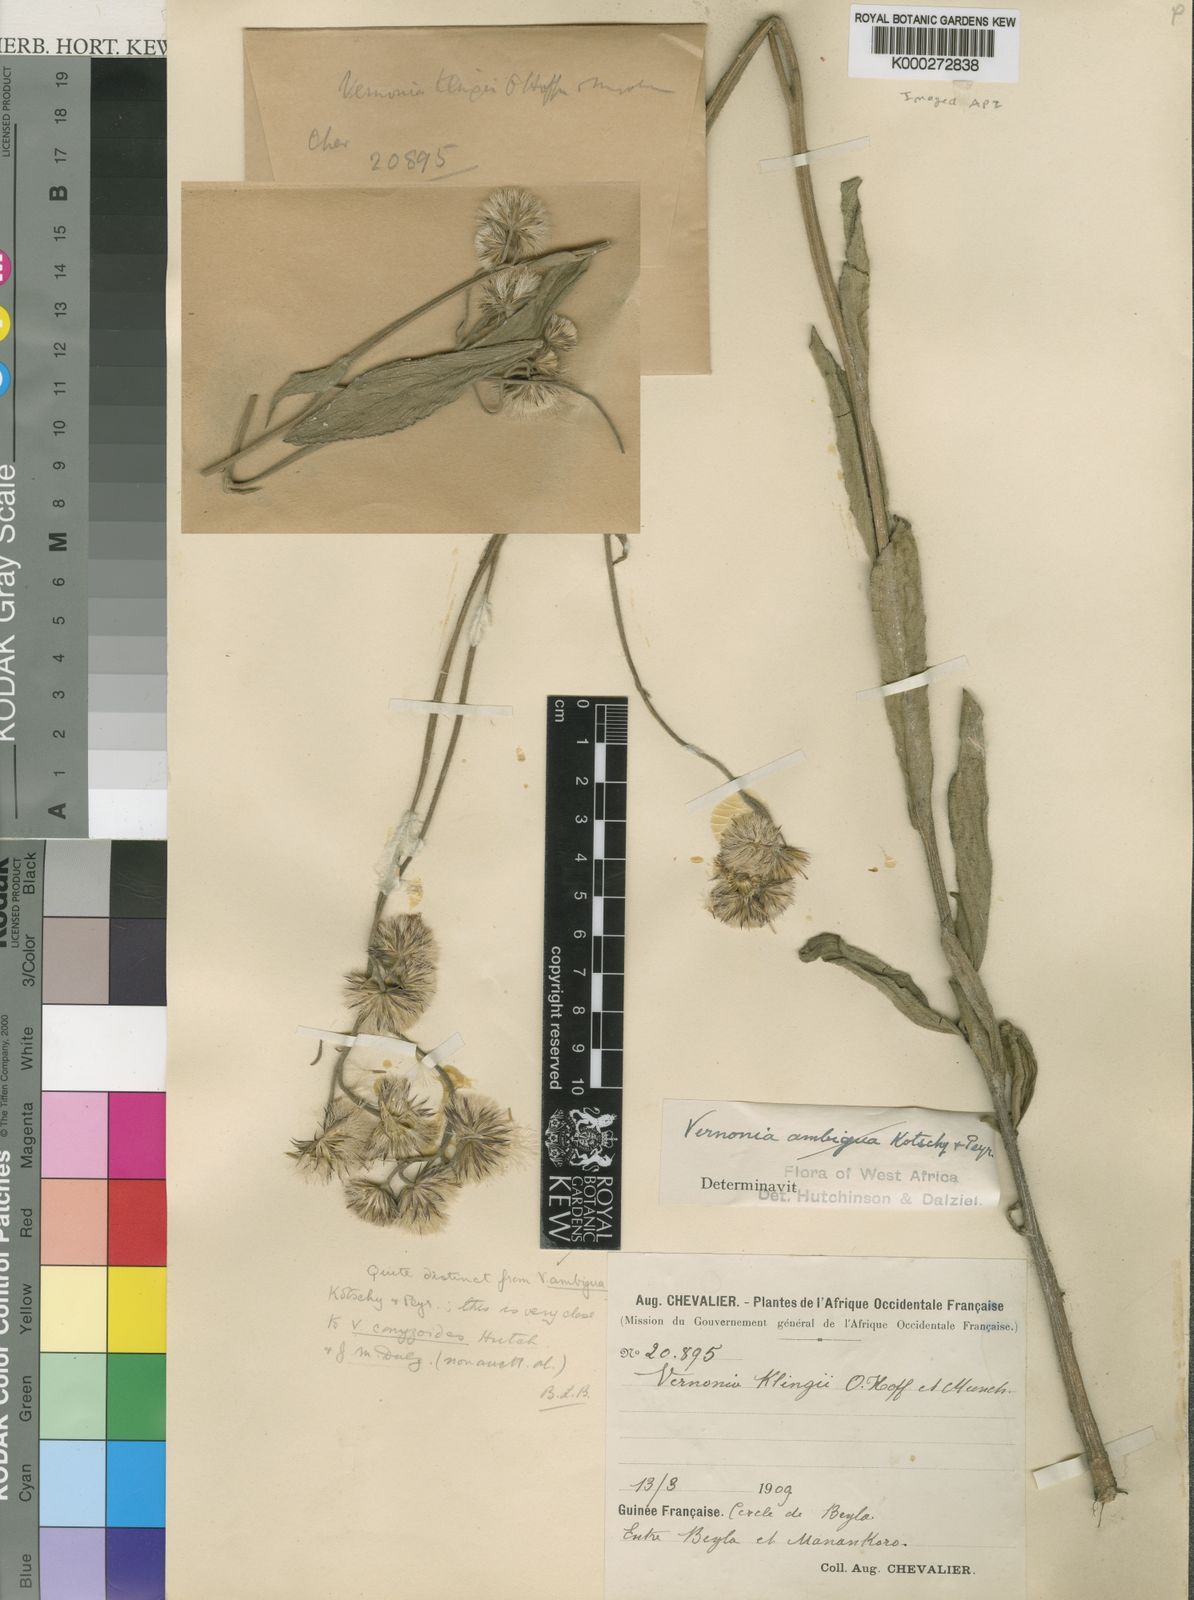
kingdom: Plantae
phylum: Tracheophyta
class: Magnoliopsida
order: Asterales
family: Asteraceae
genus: Vernoniastrum
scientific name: Vernoniastrum klingii
